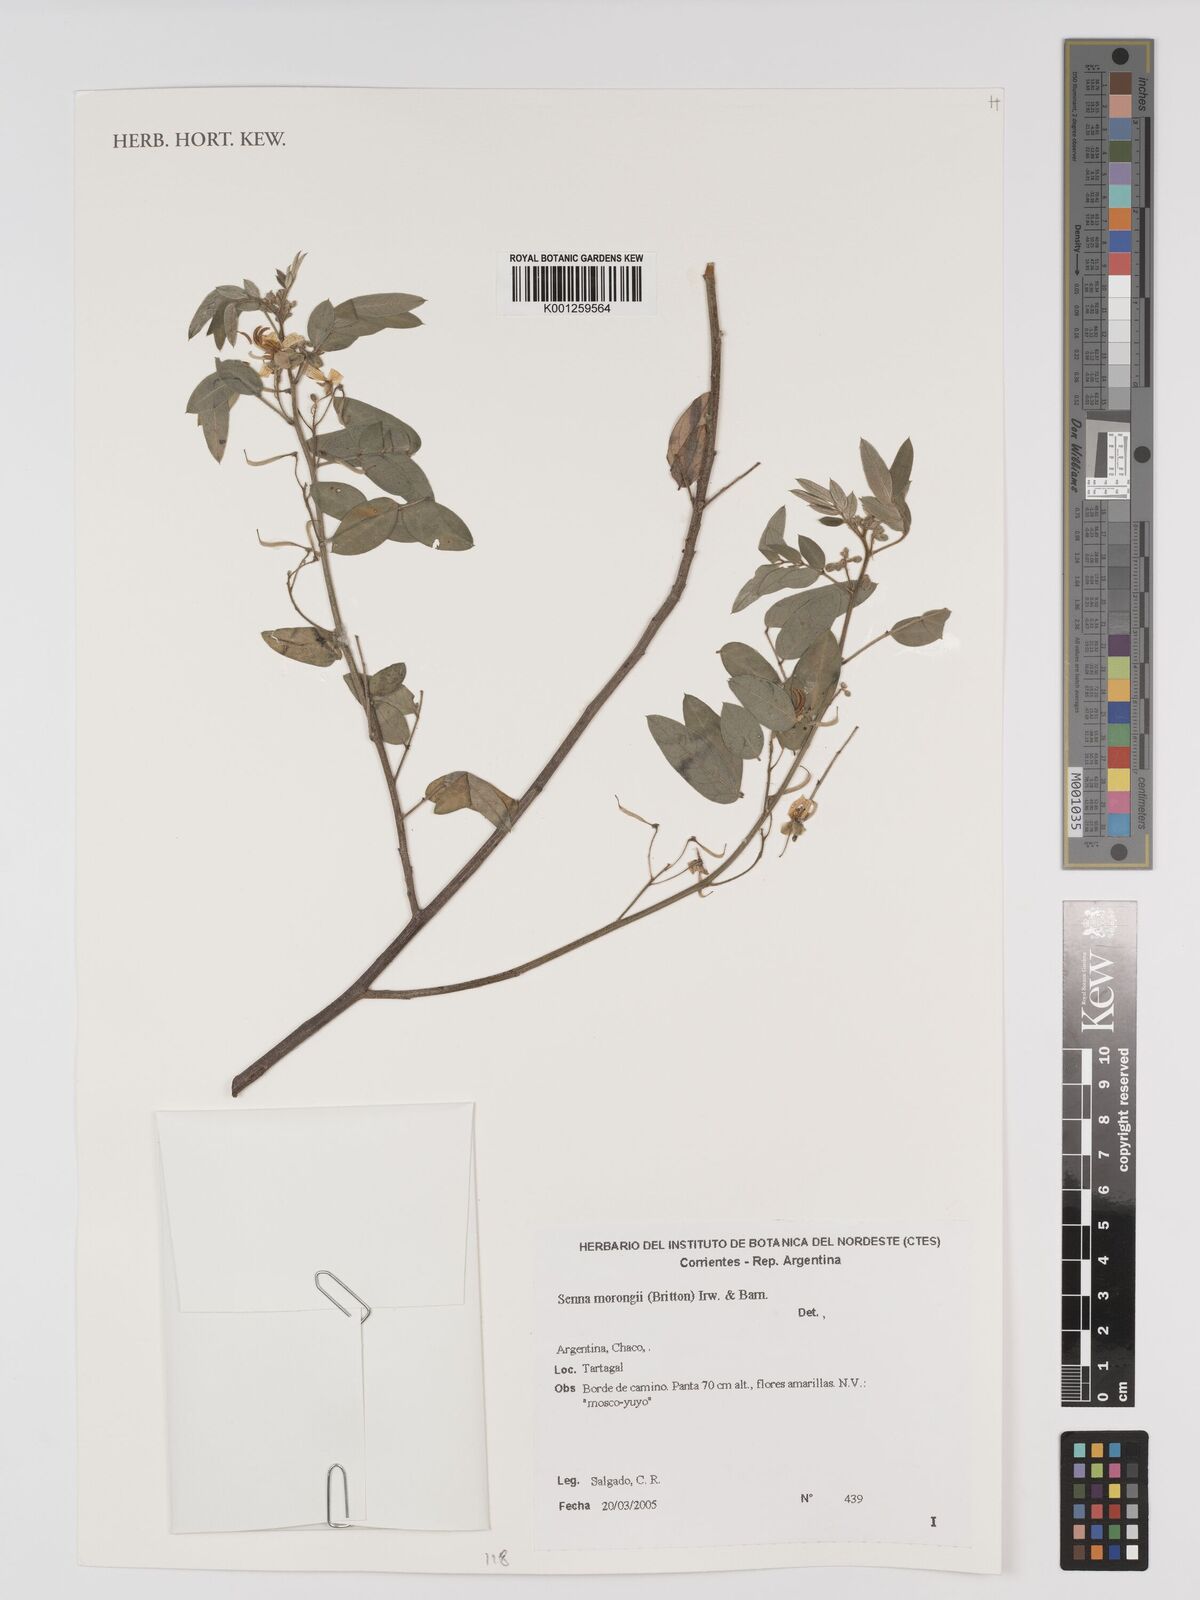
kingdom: Plantae
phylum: Tracheophyta
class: Magnoliopsida
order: Fabales
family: Fabaceae
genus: Senna
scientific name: Senna morongii
